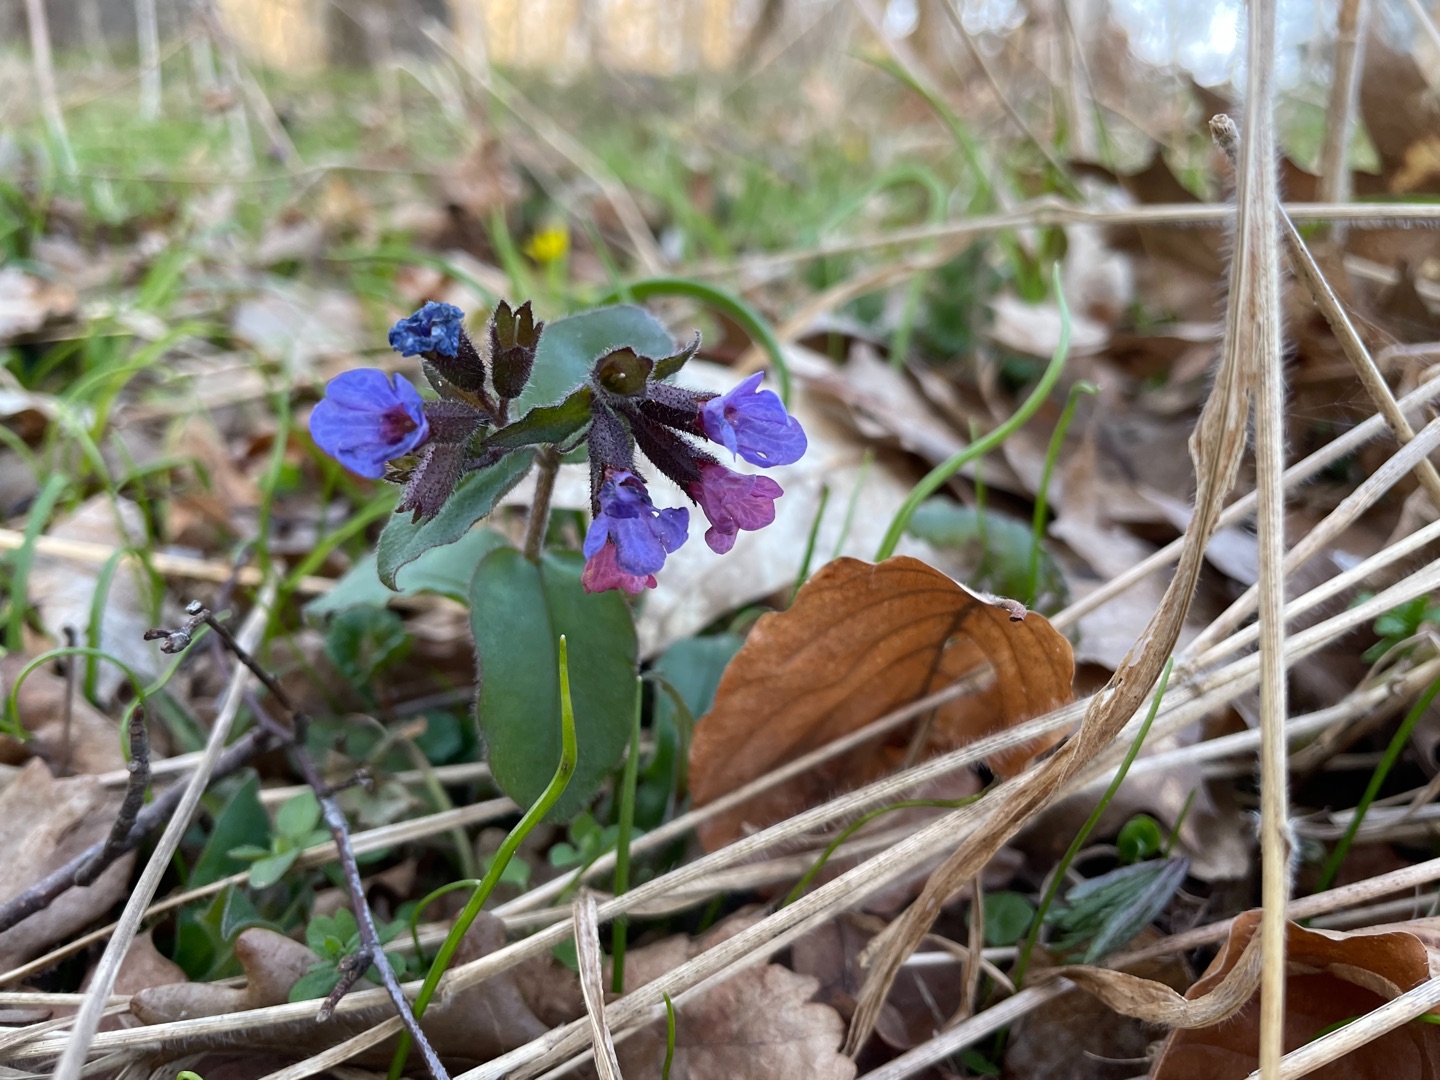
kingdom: Plantae
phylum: Tracheophyta
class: Magnoliopsida
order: Boraginales
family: Boraginaceae
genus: Pulmonaria
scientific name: Pulmonaria obscura
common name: Almindelig lungeurt
